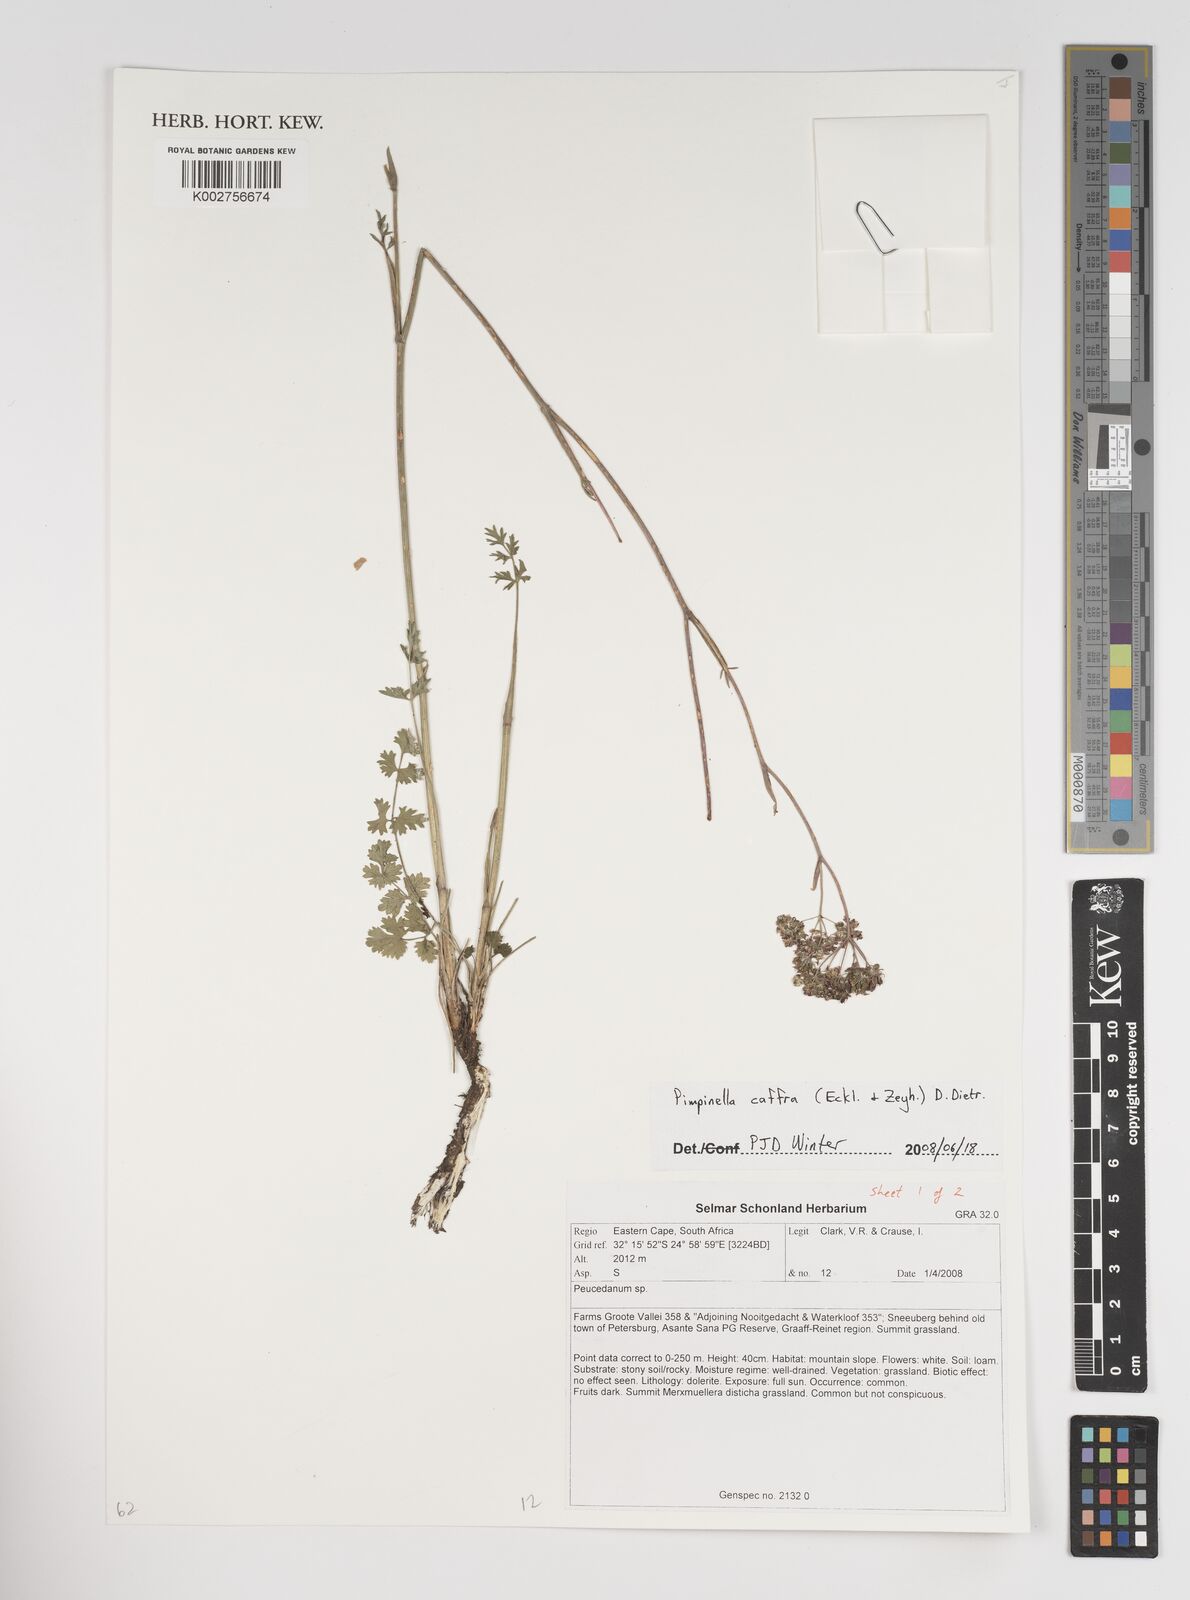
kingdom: Plantae
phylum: Tracheophyta
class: Magnoliopsida
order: Apiales
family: Apiaceae
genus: Pimpinella
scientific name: Pimpinella
